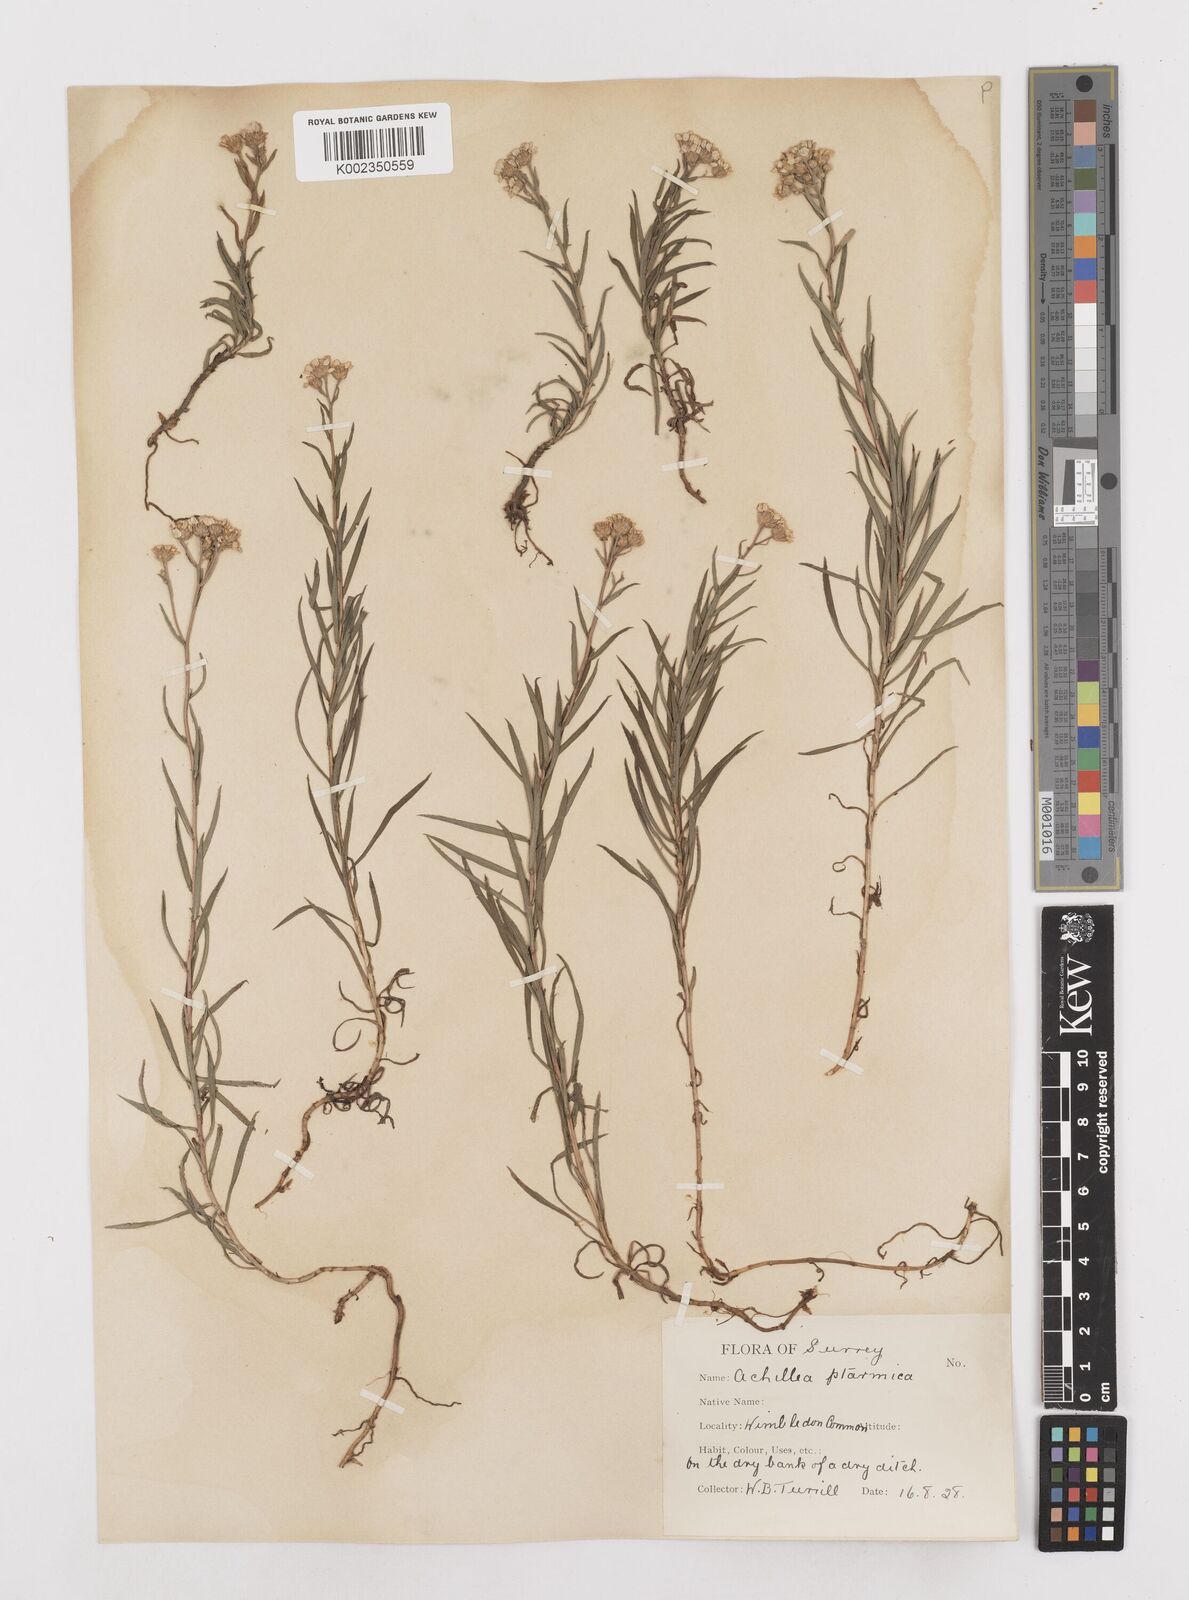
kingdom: Plantae
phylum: Tracheophyta
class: Magnoliopsida
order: Asterales
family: Asteraceae
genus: Achillea
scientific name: Achillea ptarmica
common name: Sneezeweed
